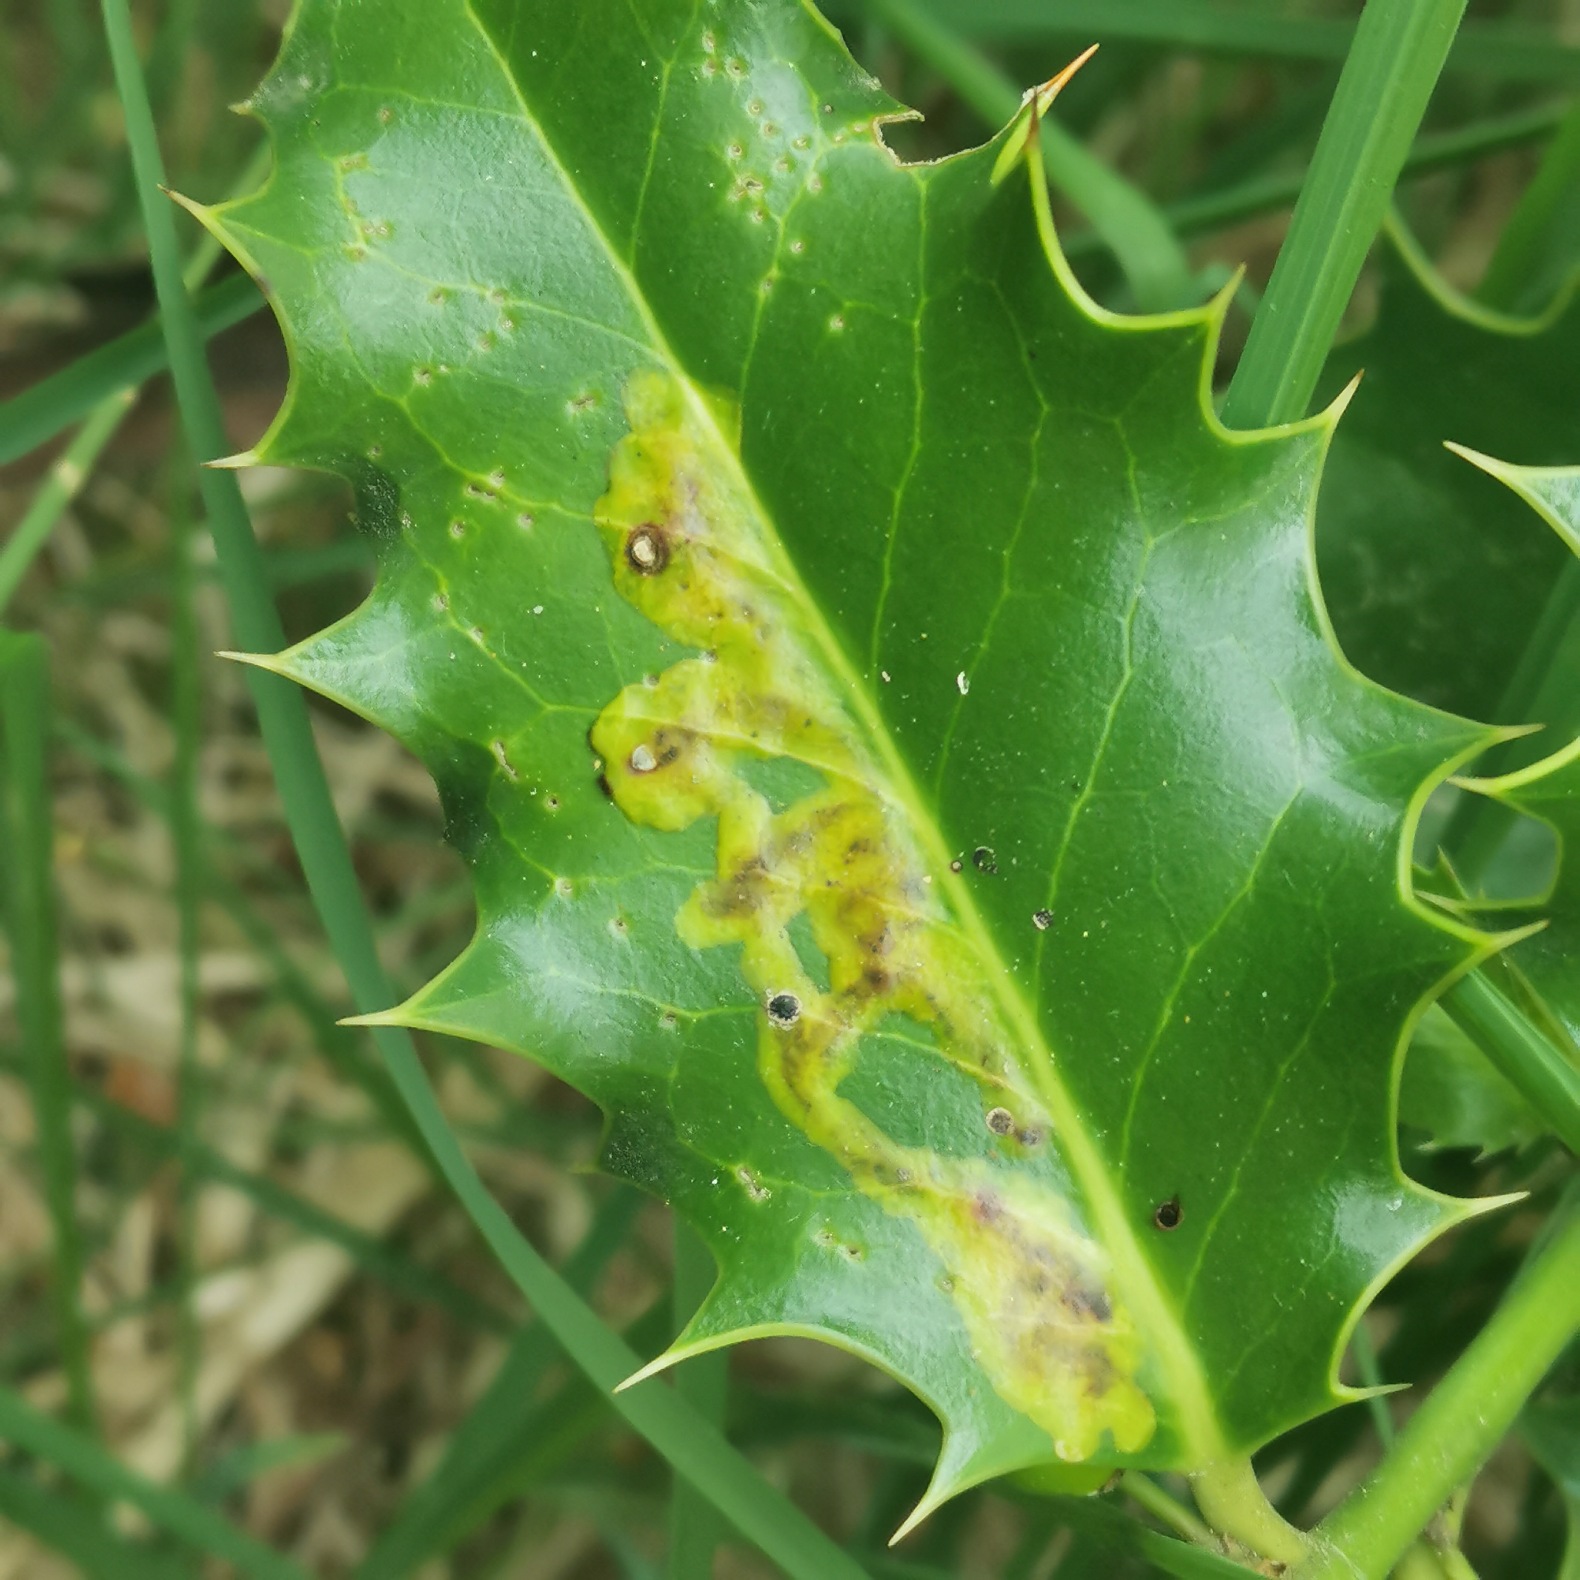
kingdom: Animalia
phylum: Arthropoda
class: Insecta
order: Diptera
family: Agromyzidae
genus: Phytomyza
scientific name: Phytomyza ilicis
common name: Kristtornminérflue
